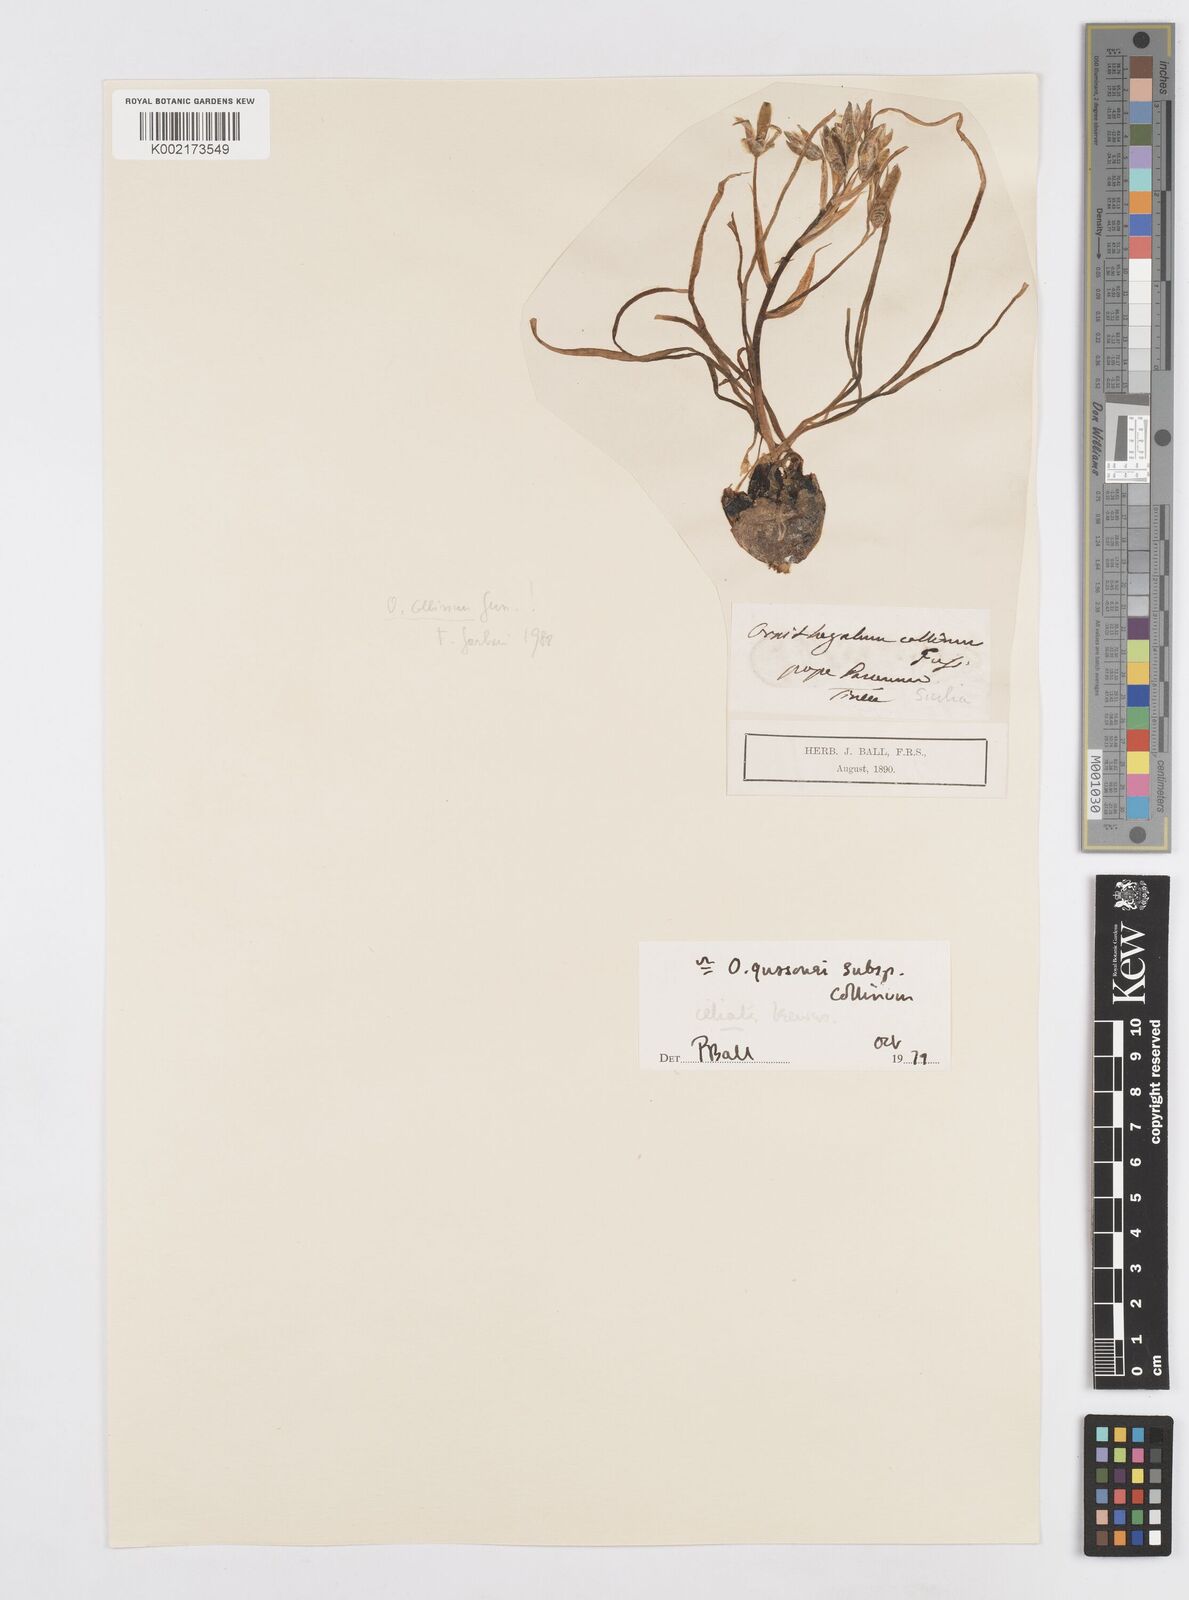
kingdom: Plantae
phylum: Tracheophyta
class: Liliopsida
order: Asparagales
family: Asparagaceae
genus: Ornithogalum
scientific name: Ornithogalum gussonei
